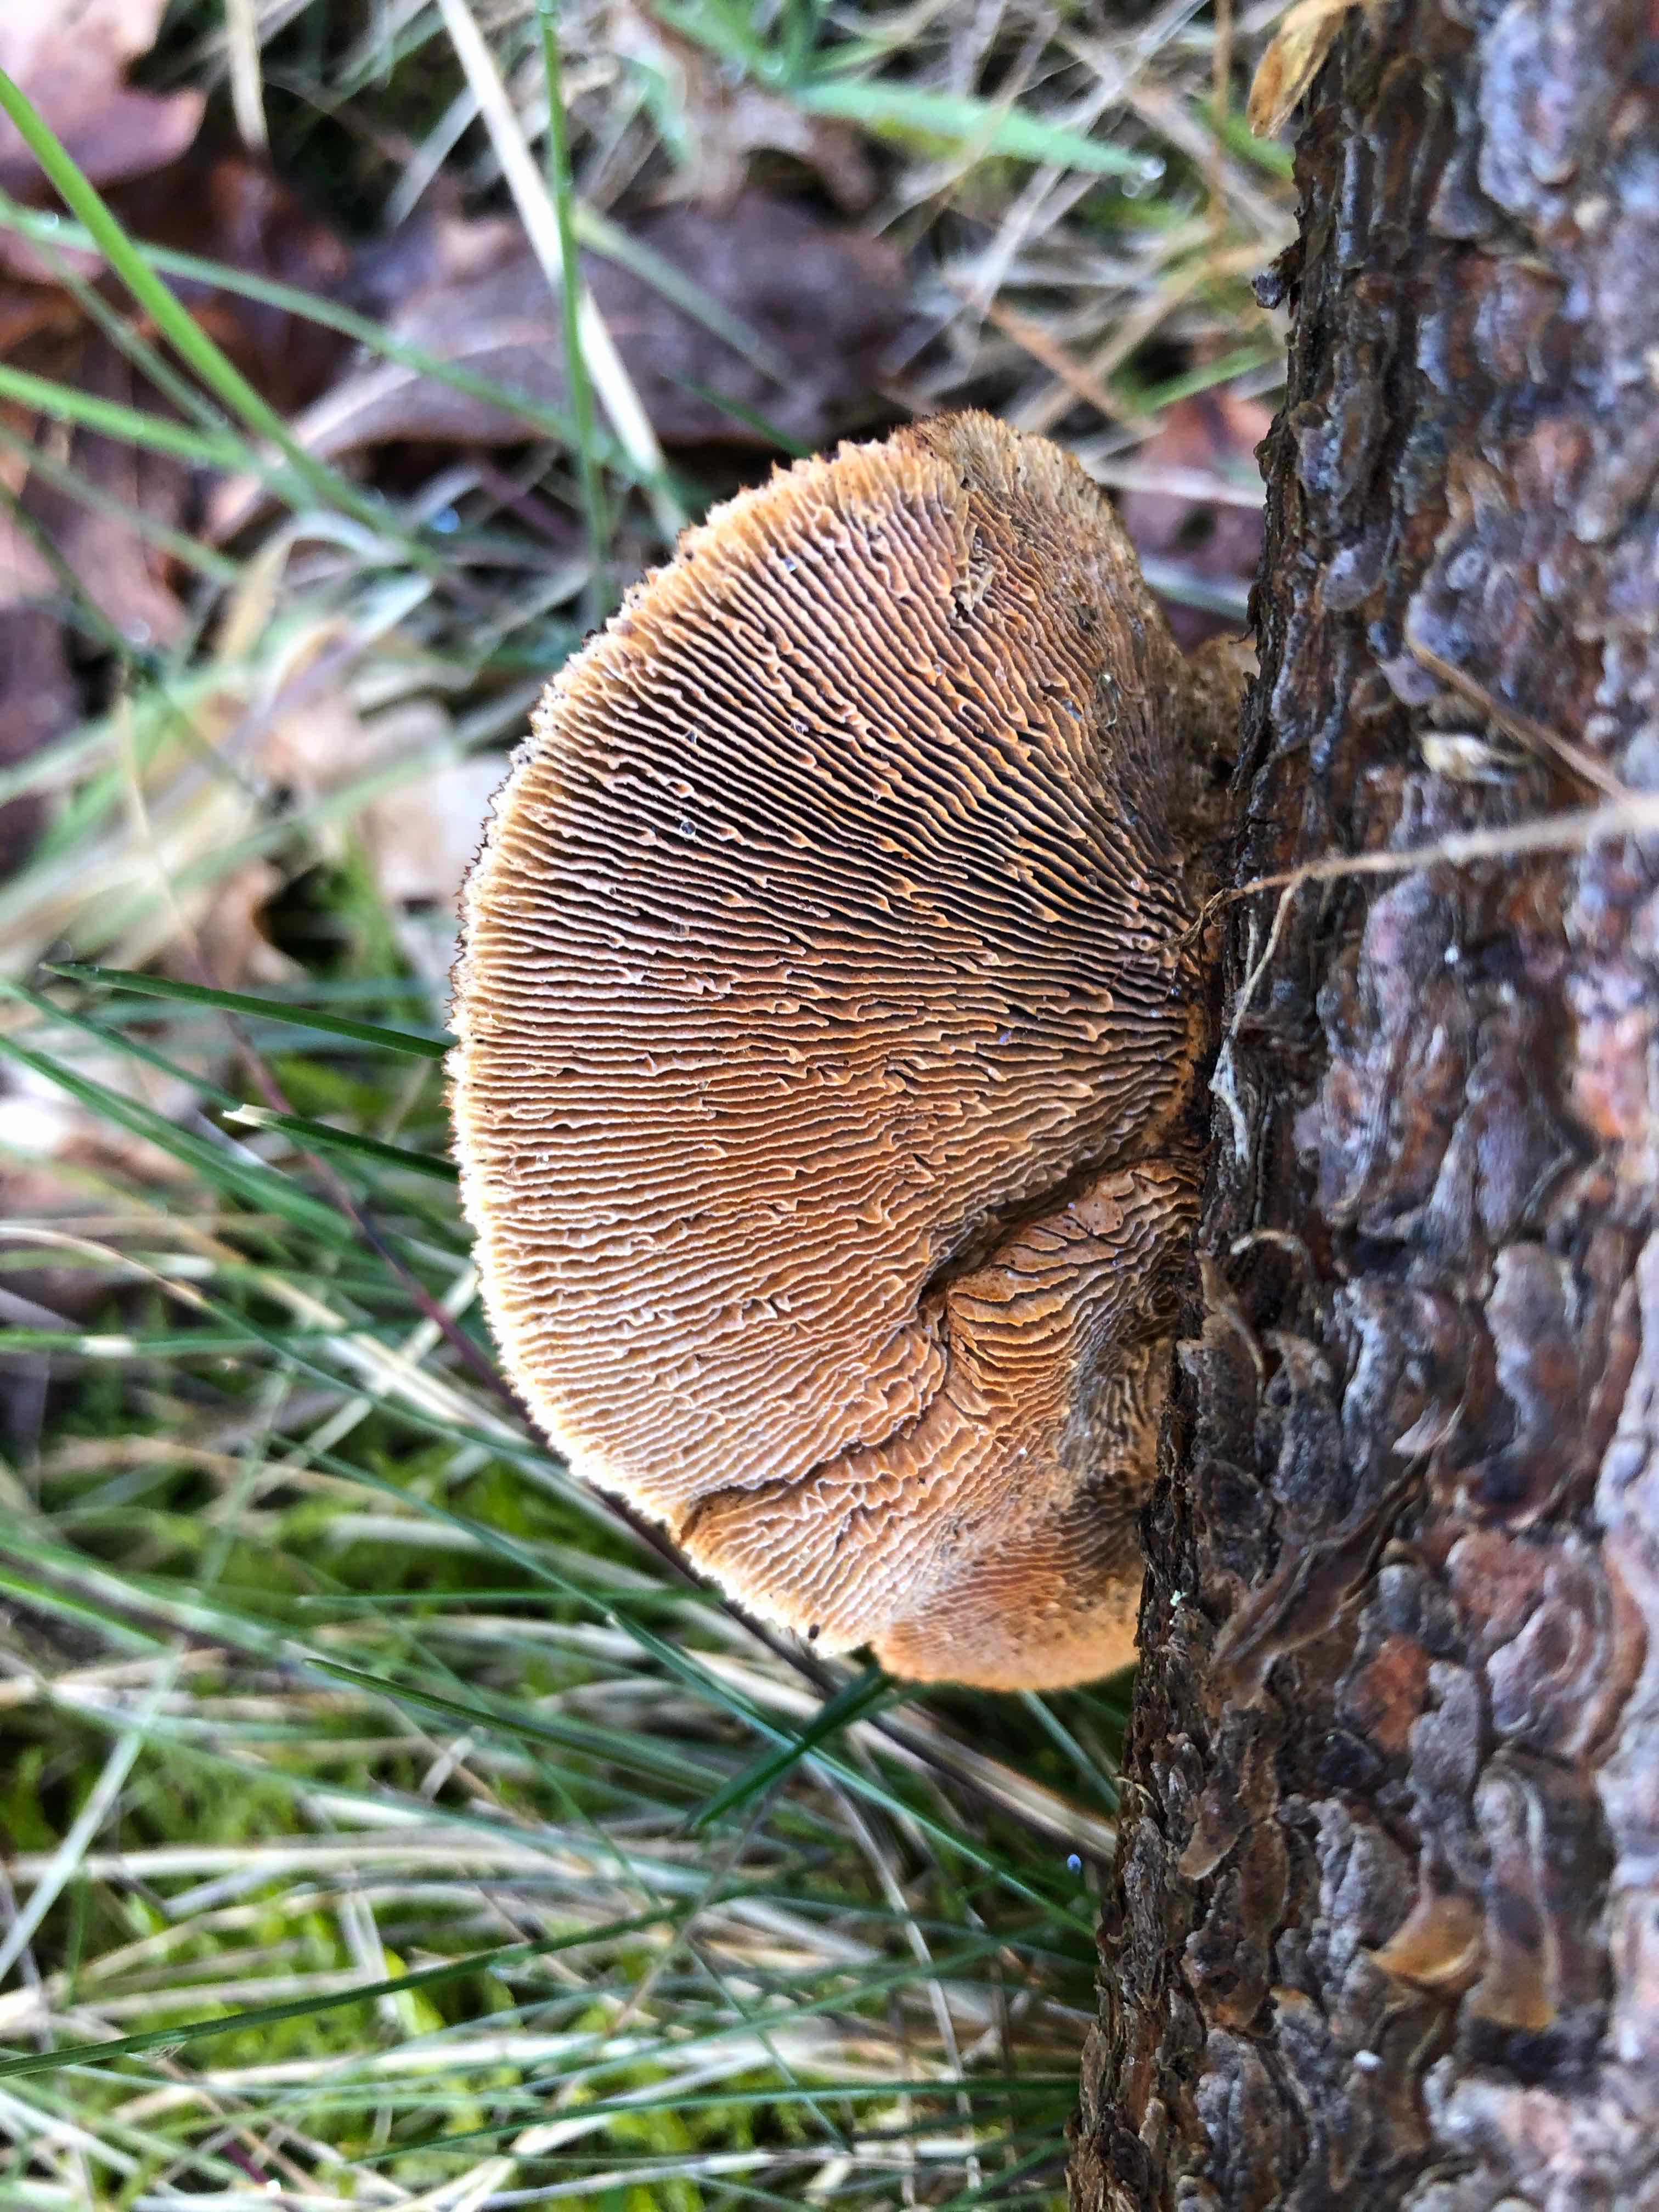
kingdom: Fungi
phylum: Basidiomycota
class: Agaricomycetes
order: Gloeophyllales
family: Gloeophyllaceae
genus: Gloeophyllum
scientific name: Gloeophyllum sepiarium
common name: fyrre-korkhat
